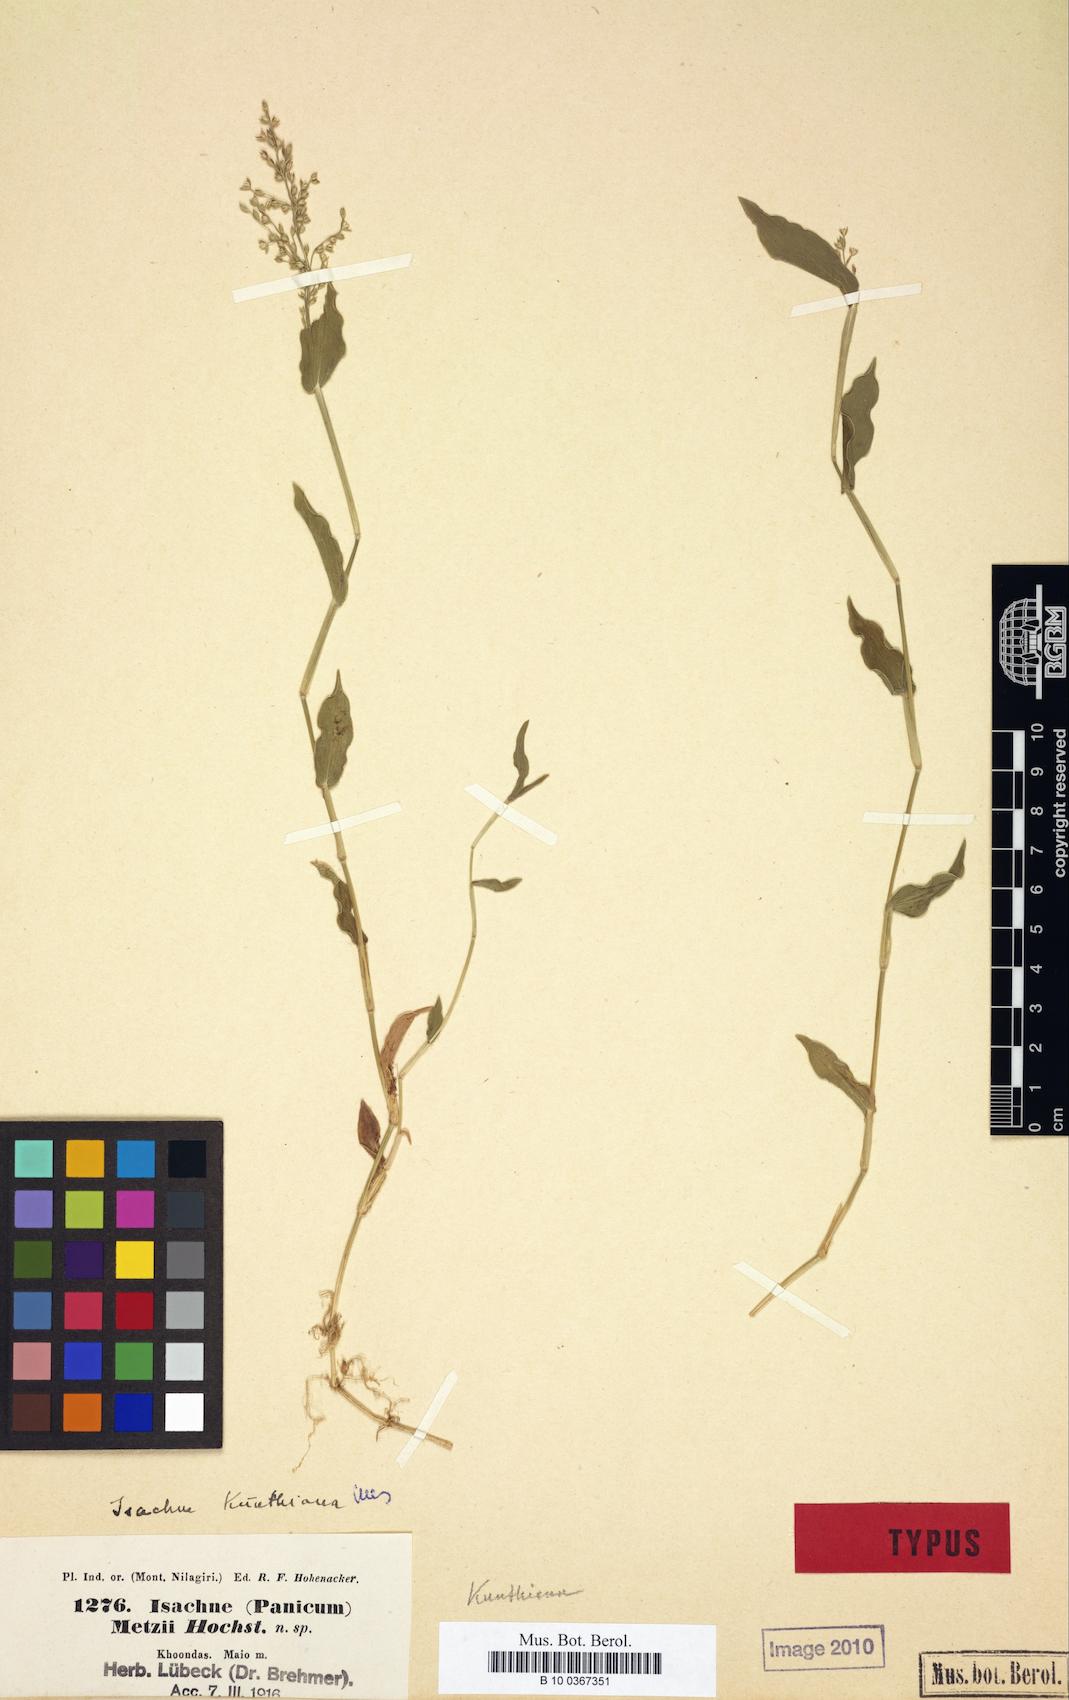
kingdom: Plantae
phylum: Tracheophyta
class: Liliopsida
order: Poales
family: Poaceae
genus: Isachne
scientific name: Isachne kunthiana
